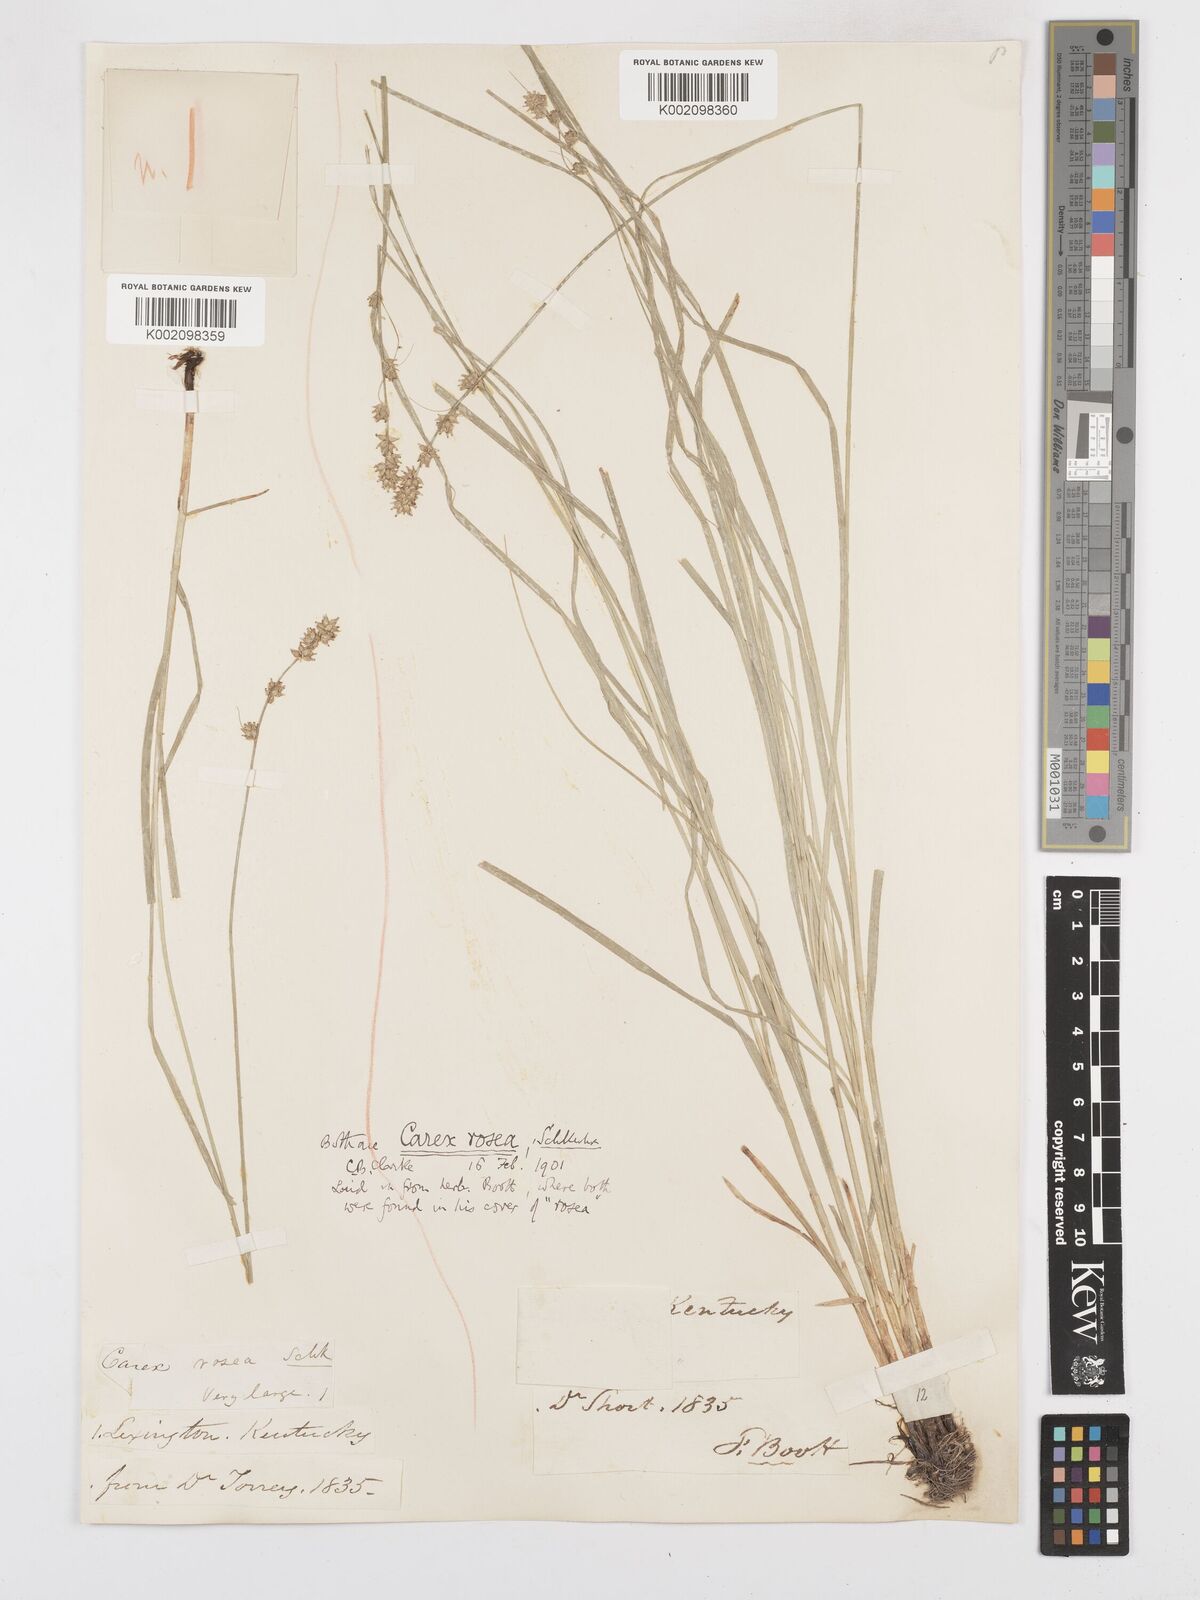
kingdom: Plantae
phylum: Tracheophyta
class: Liliopsida
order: Poales
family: Cyperaceae
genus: Carex
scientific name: Carex rosea
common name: Curly-styled wood sedge
